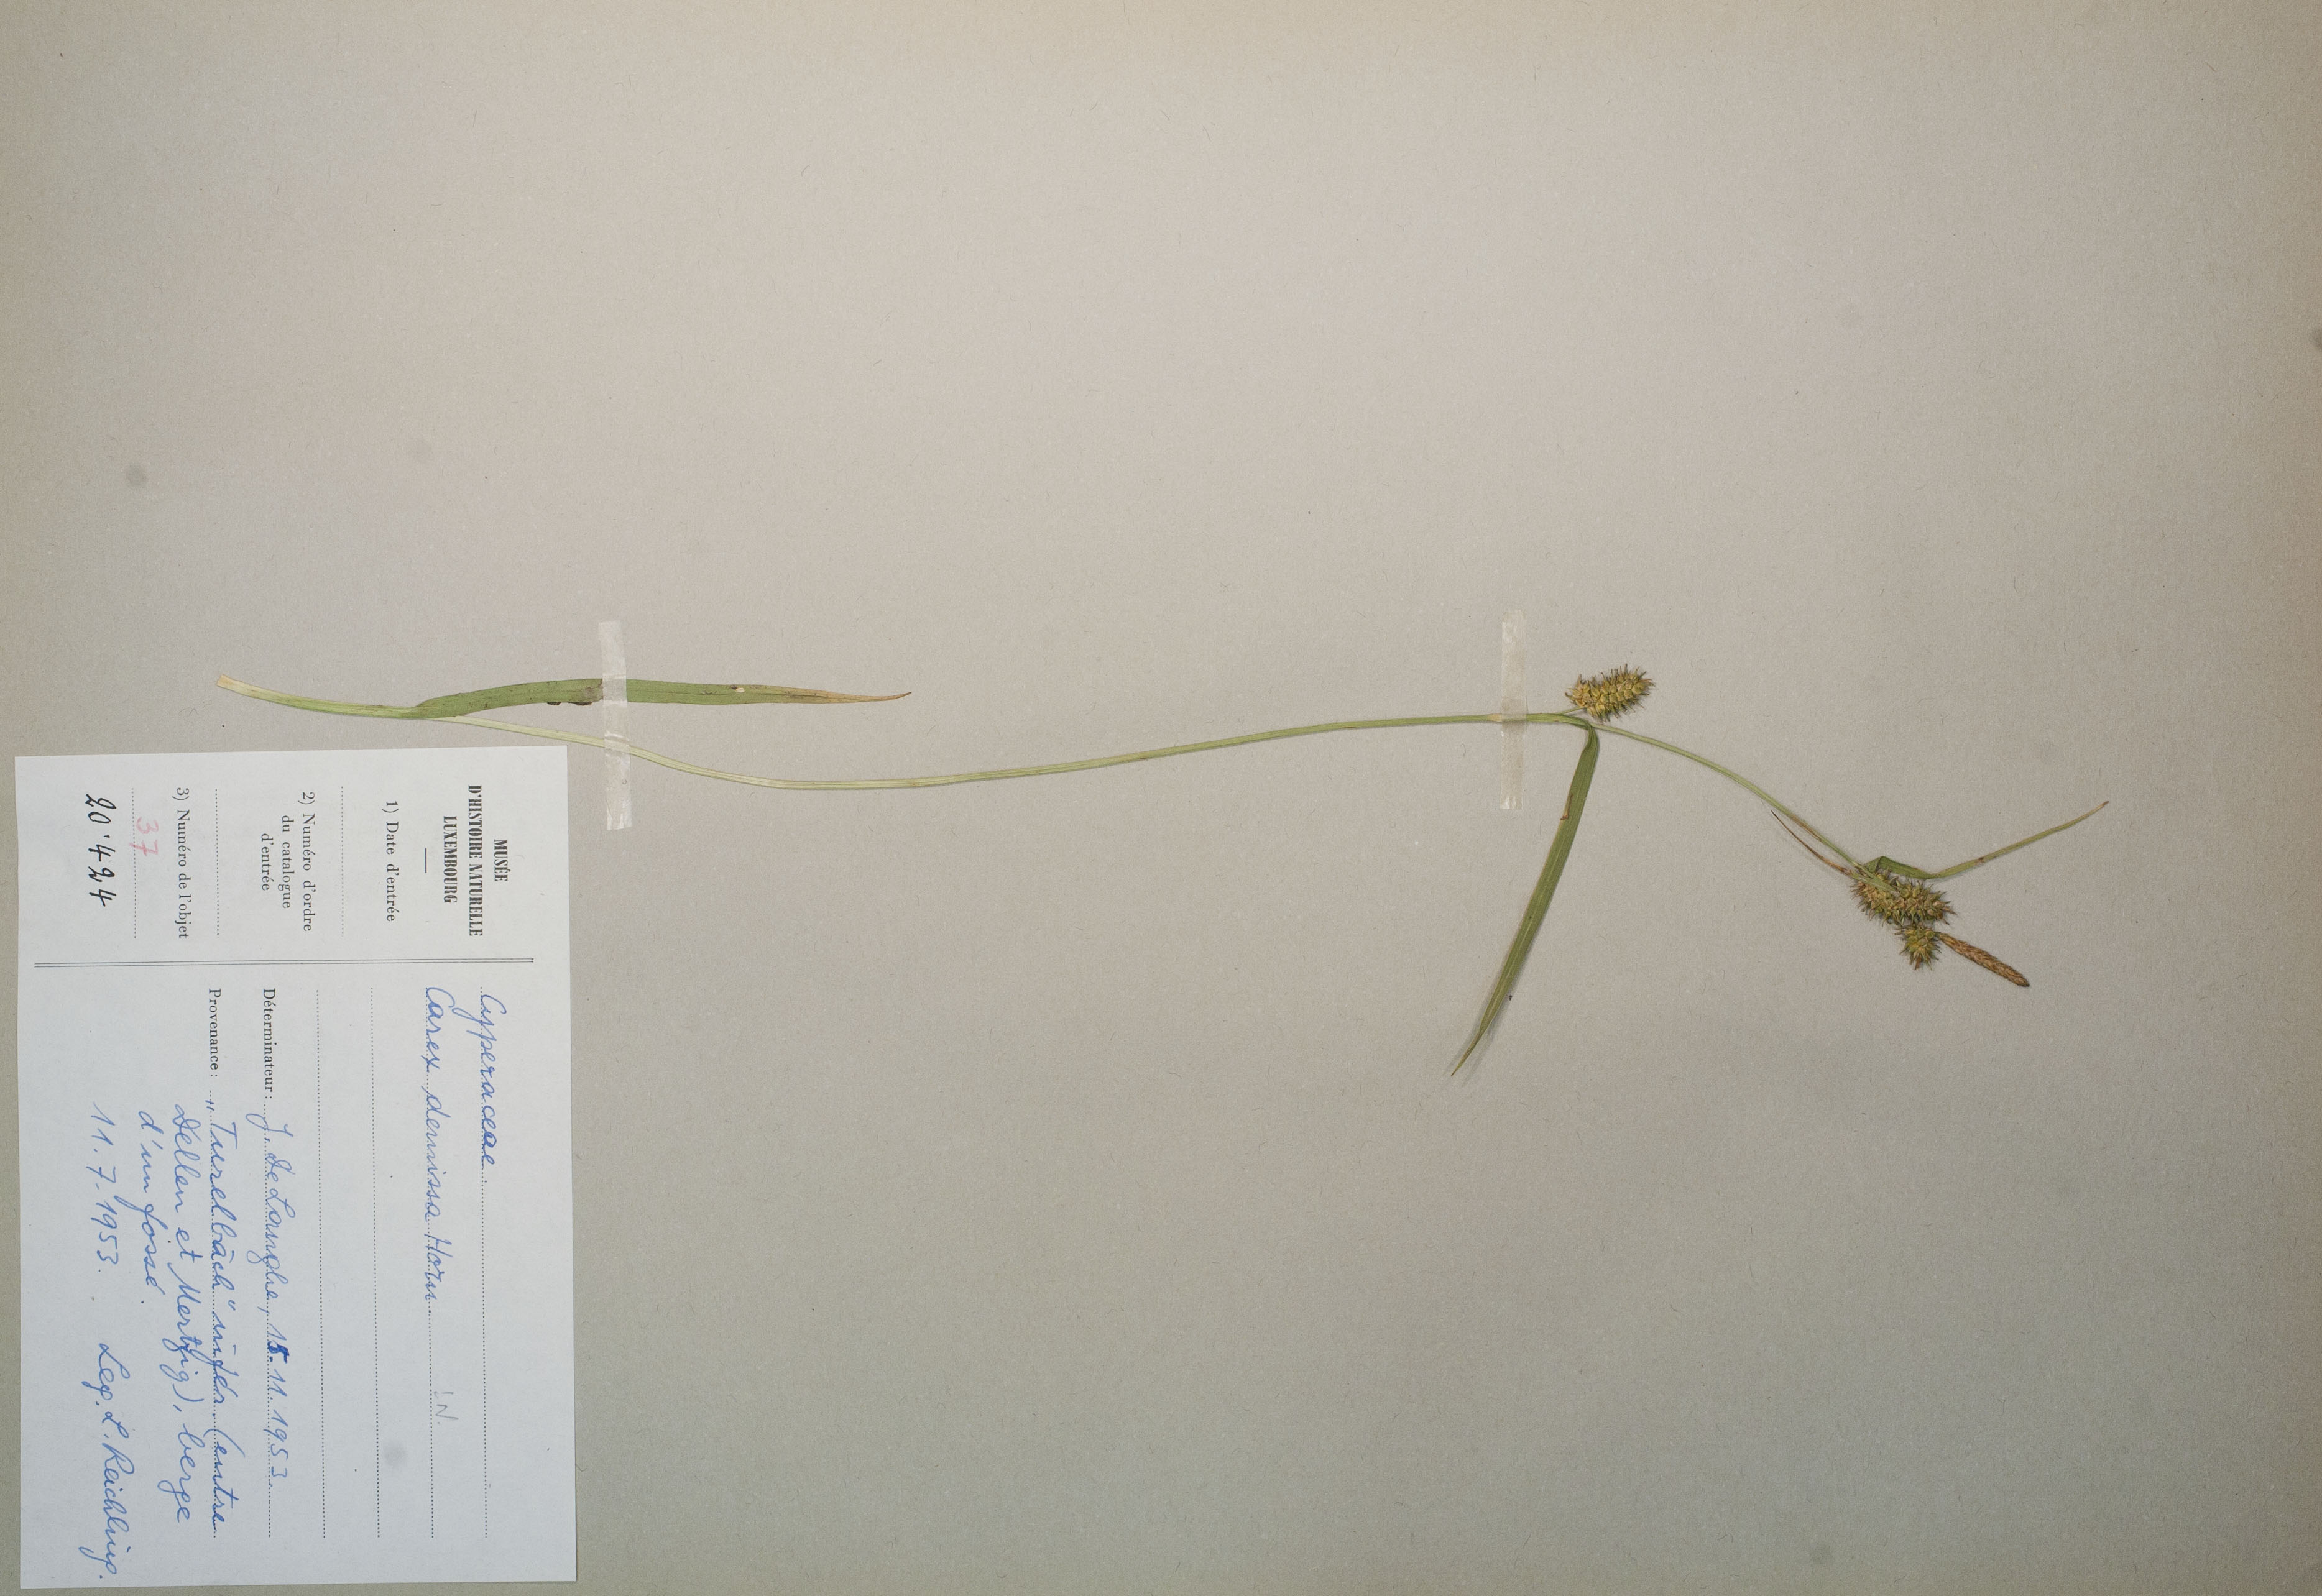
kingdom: Plantae
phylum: Tracheophyta
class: Liliopsida
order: Poales
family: Cyperaceae
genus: Carex
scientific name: Carex demissa
